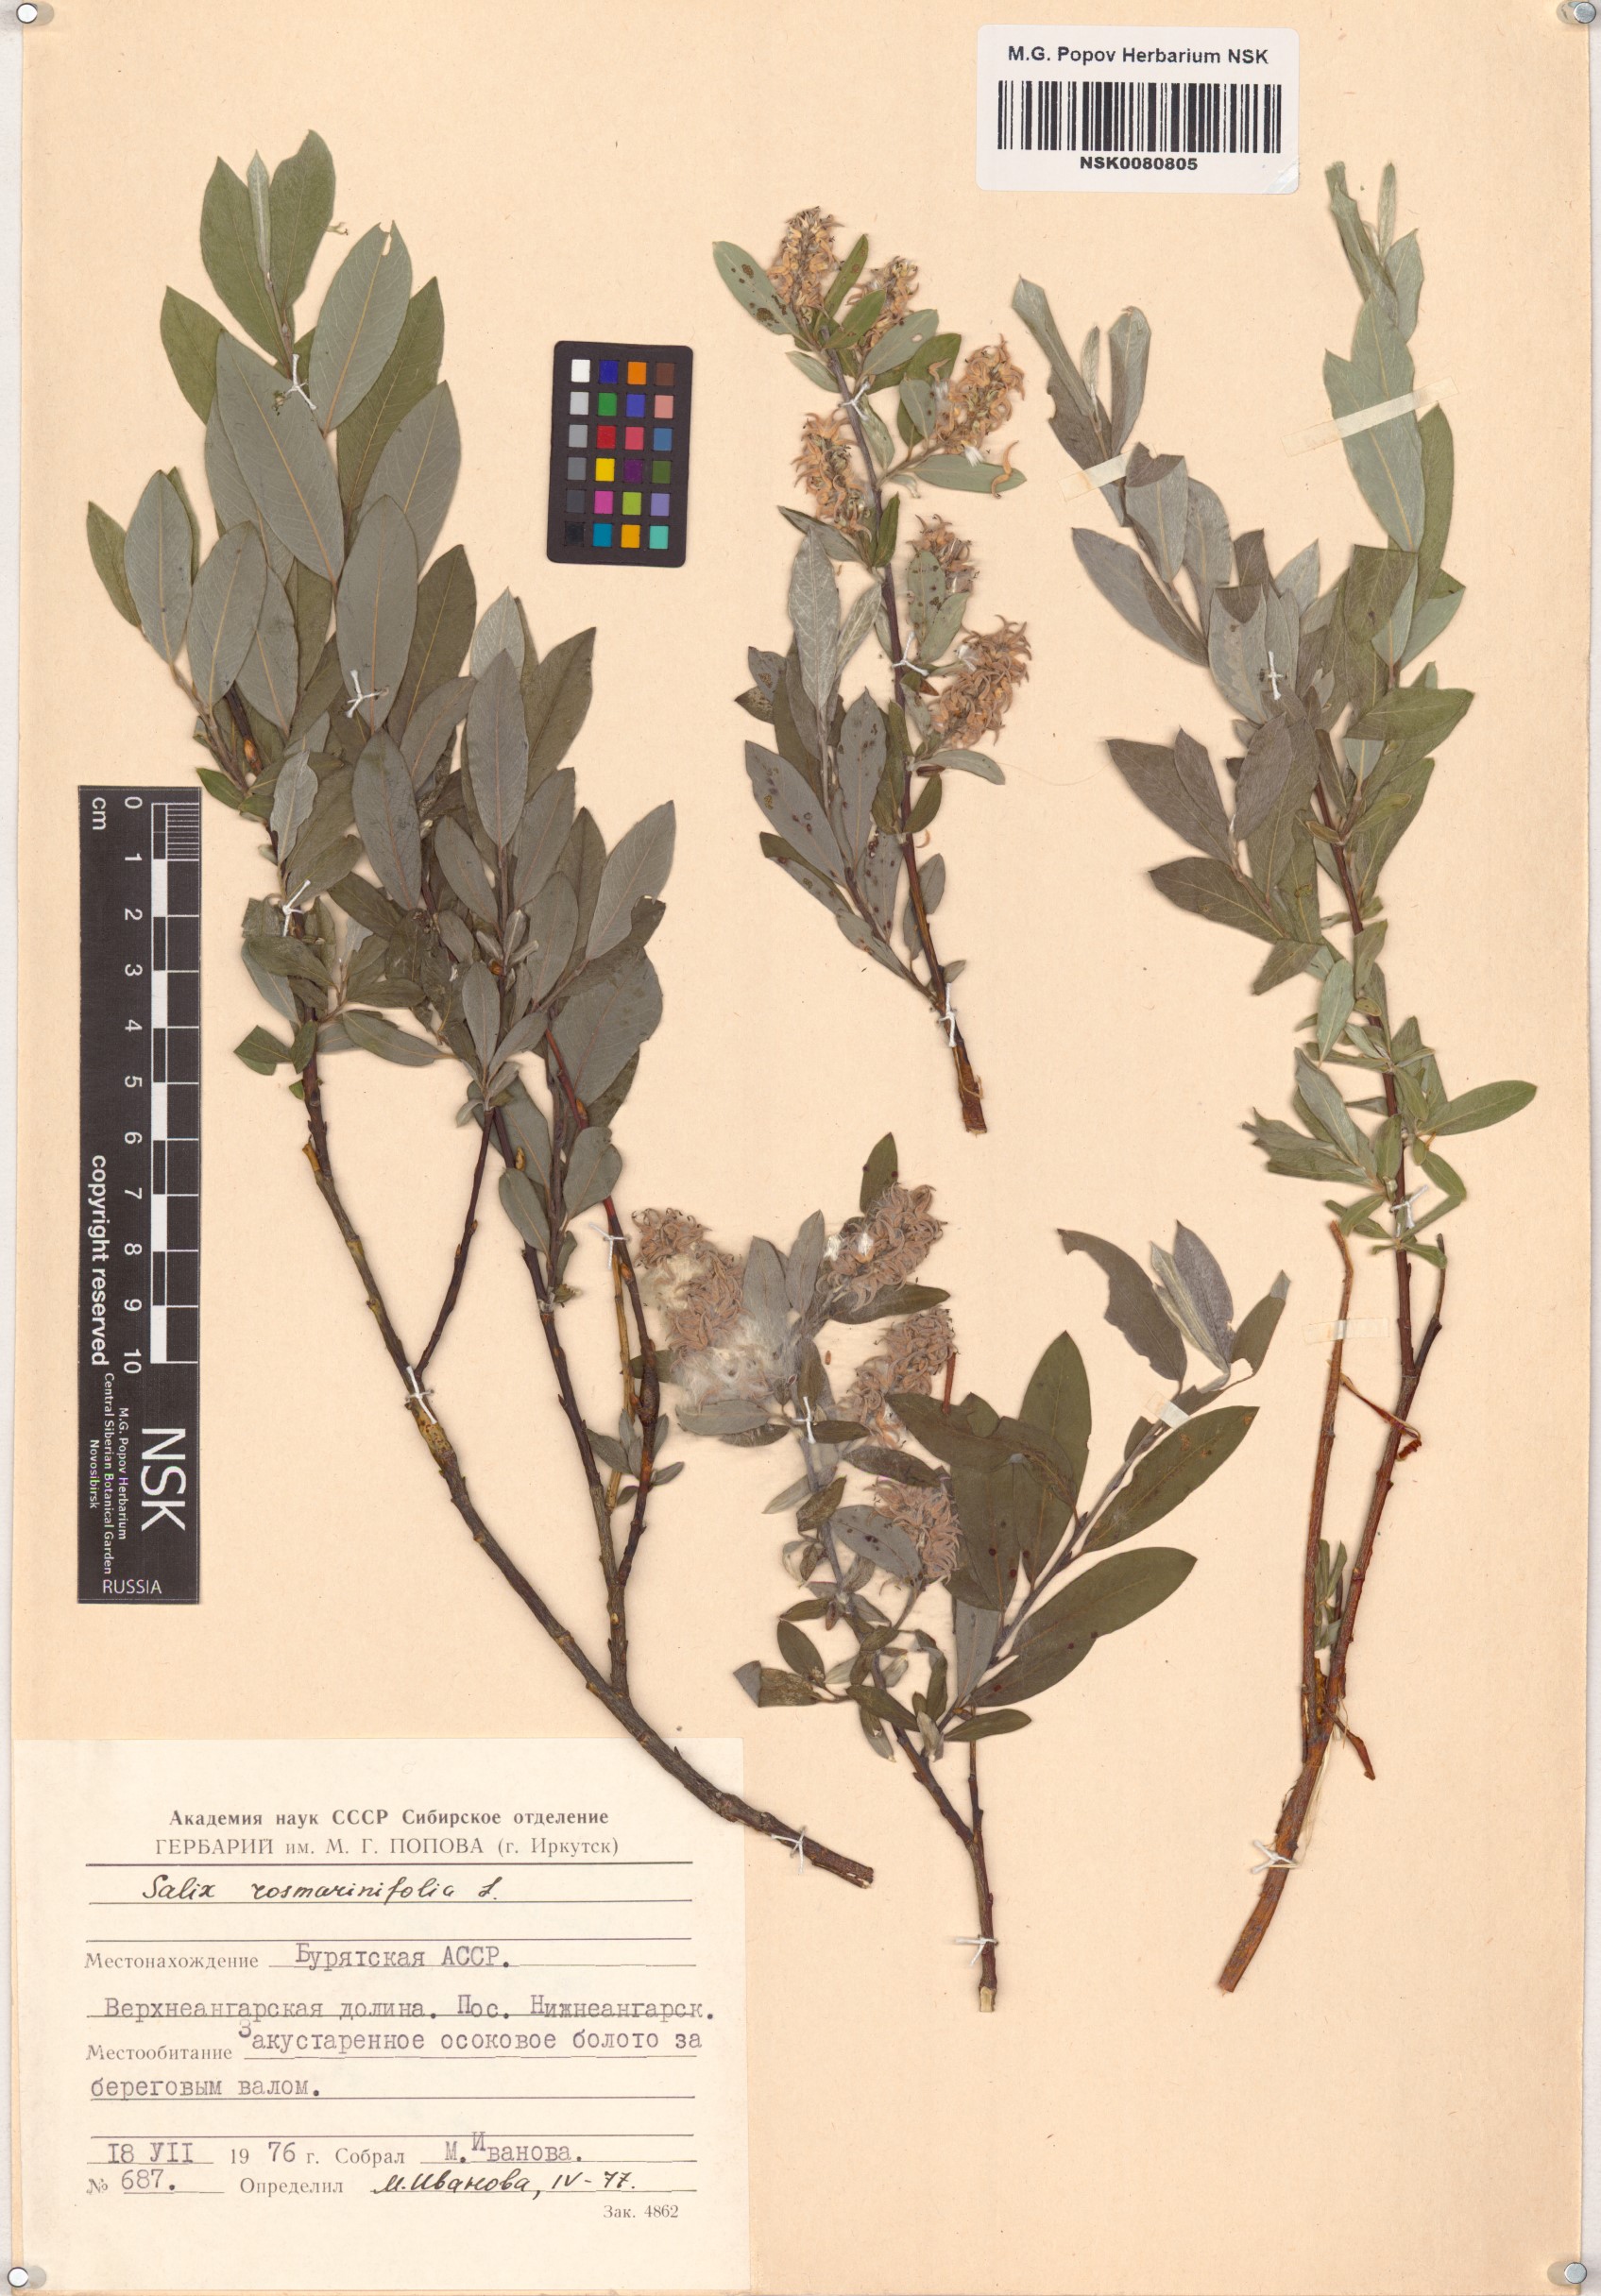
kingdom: Plantae
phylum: Tracheophyta
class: Magnoliopsida
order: Malpighiales
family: Salicaceae
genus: Salix
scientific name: Salix rosmarinifolia
